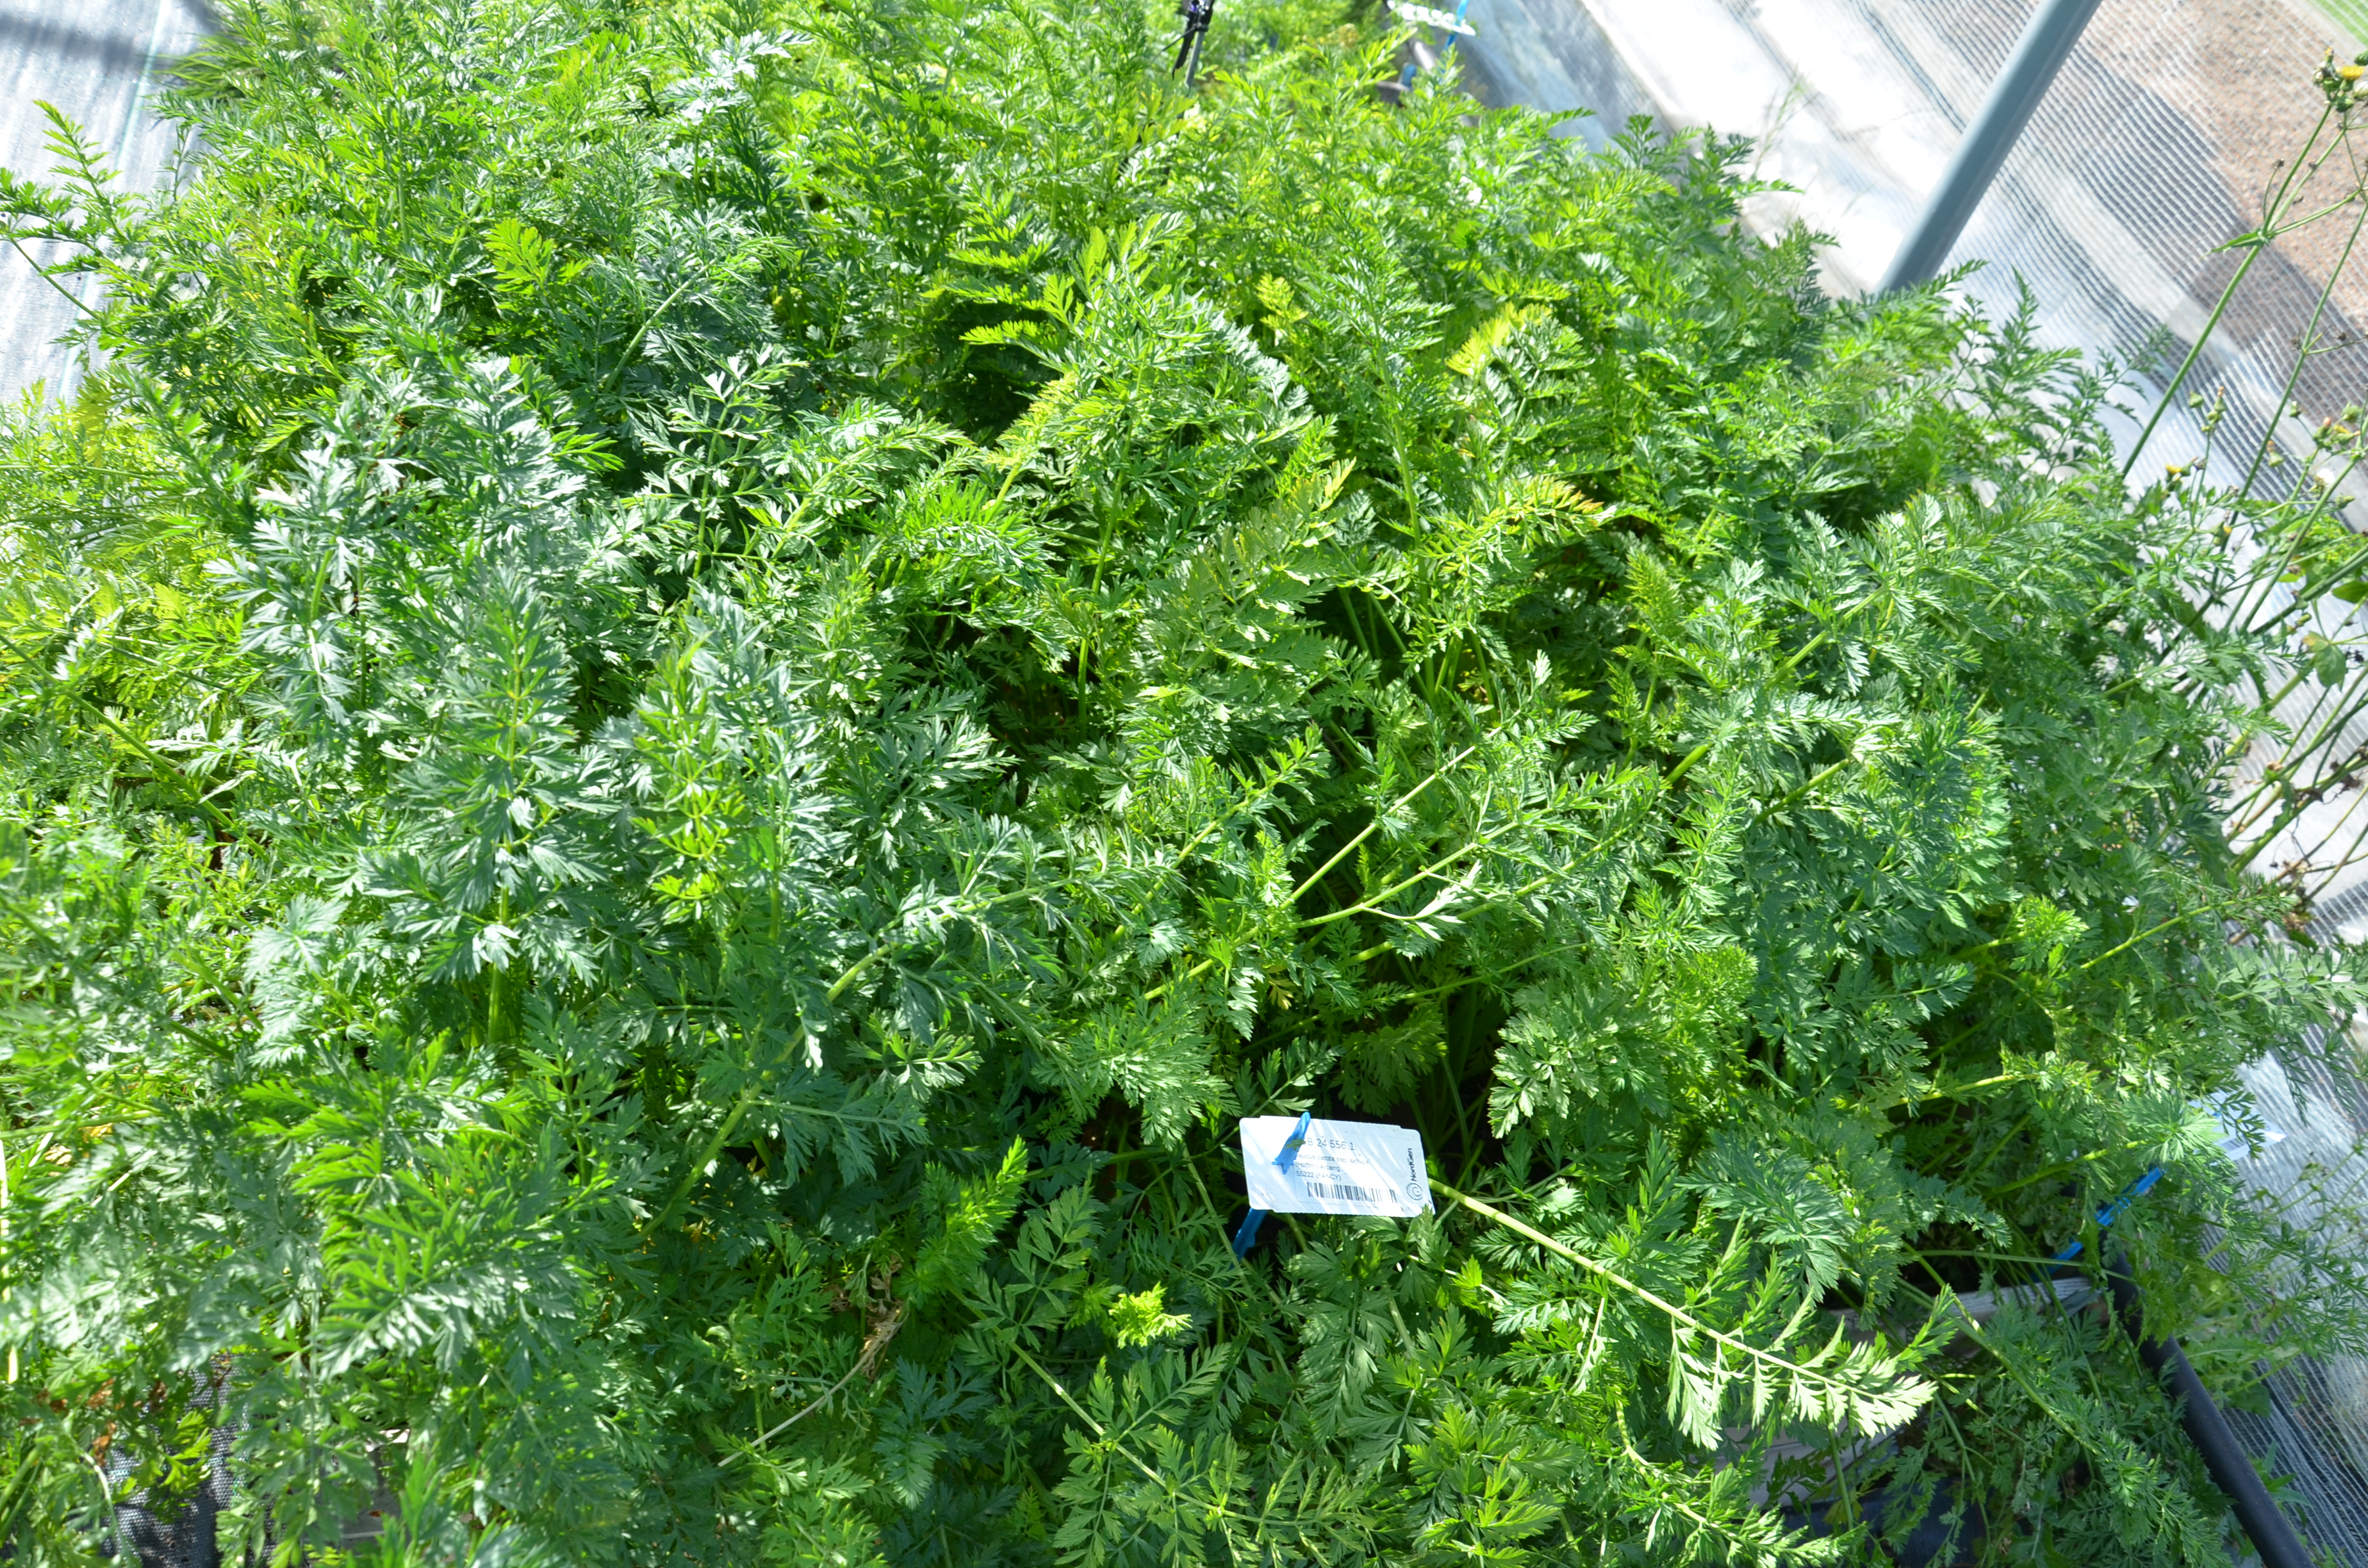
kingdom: Plantae
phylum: Tracheophyta
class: Magnoliopsida
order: Apiales
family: Apiaceae
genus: Daucus
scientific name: Daucus carota
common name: Wild carrot
